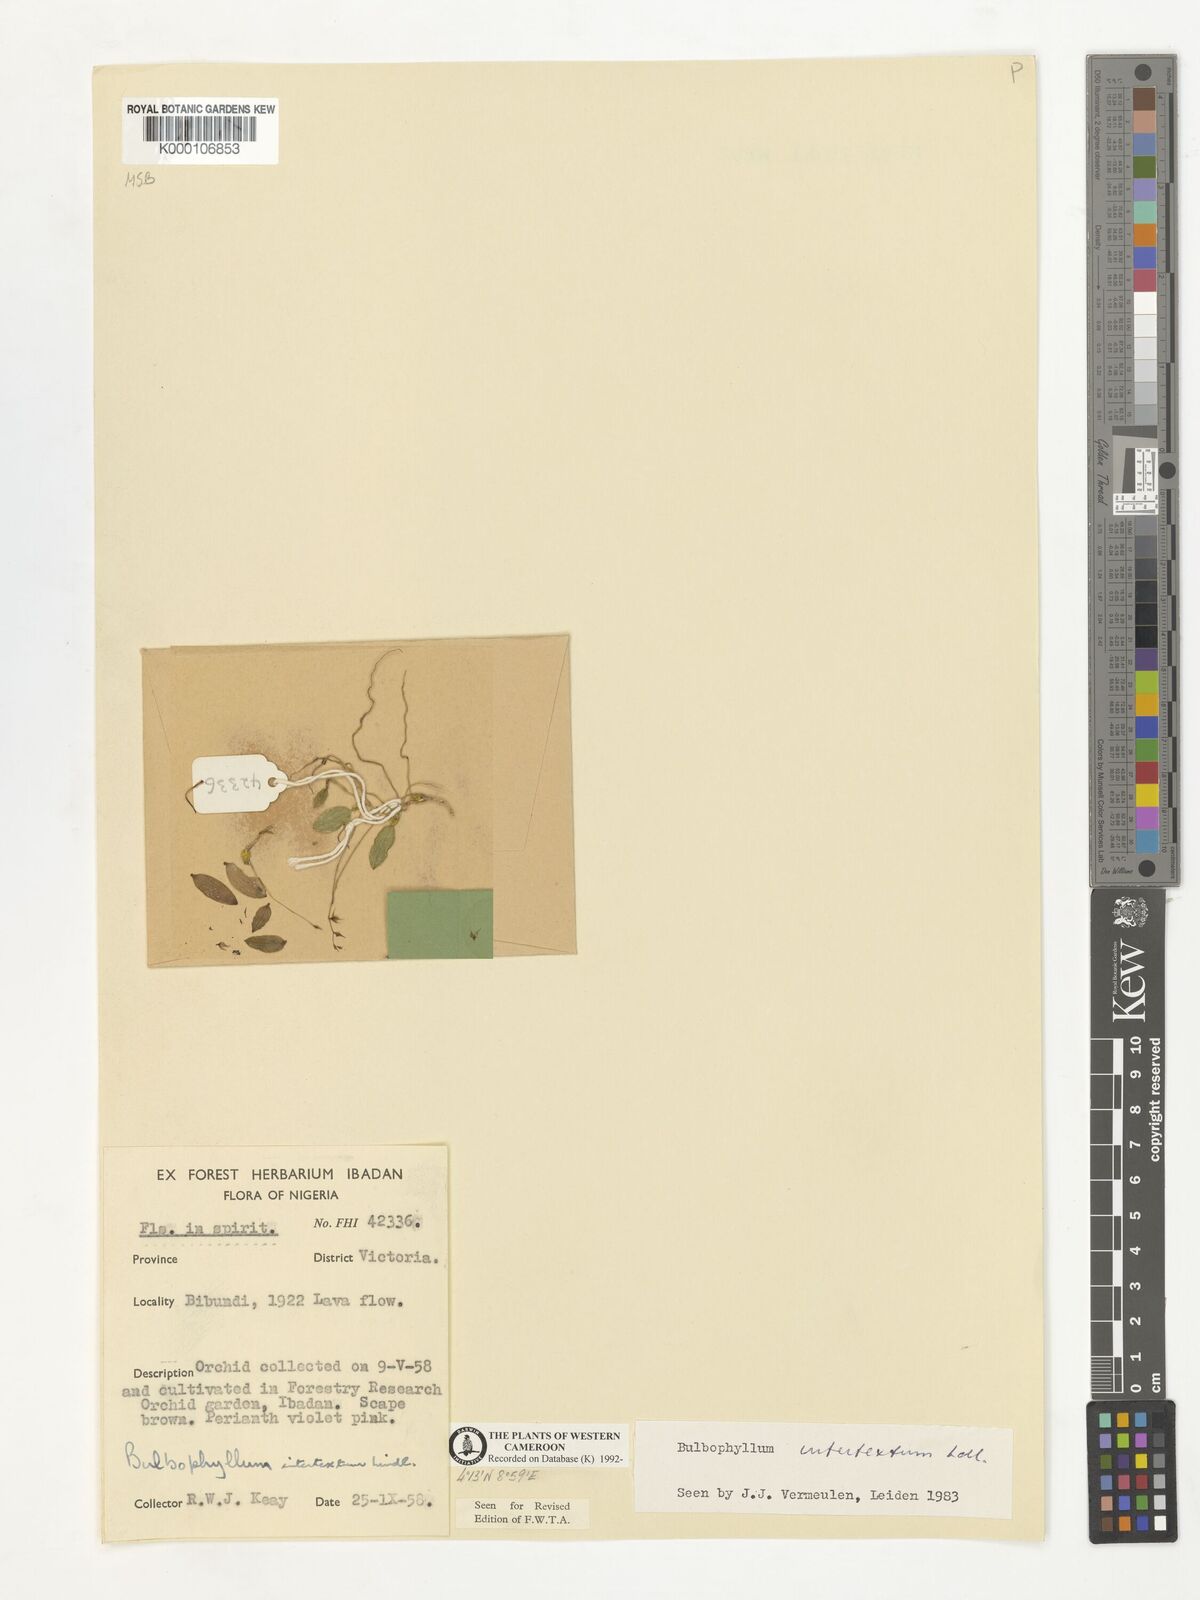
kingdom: Plantae
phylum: Tracheophyta
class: Liliopsida
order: Asparagales
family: Orchidaceae
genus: Bulbophyllum
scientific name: Bulbophyllum intertextum
